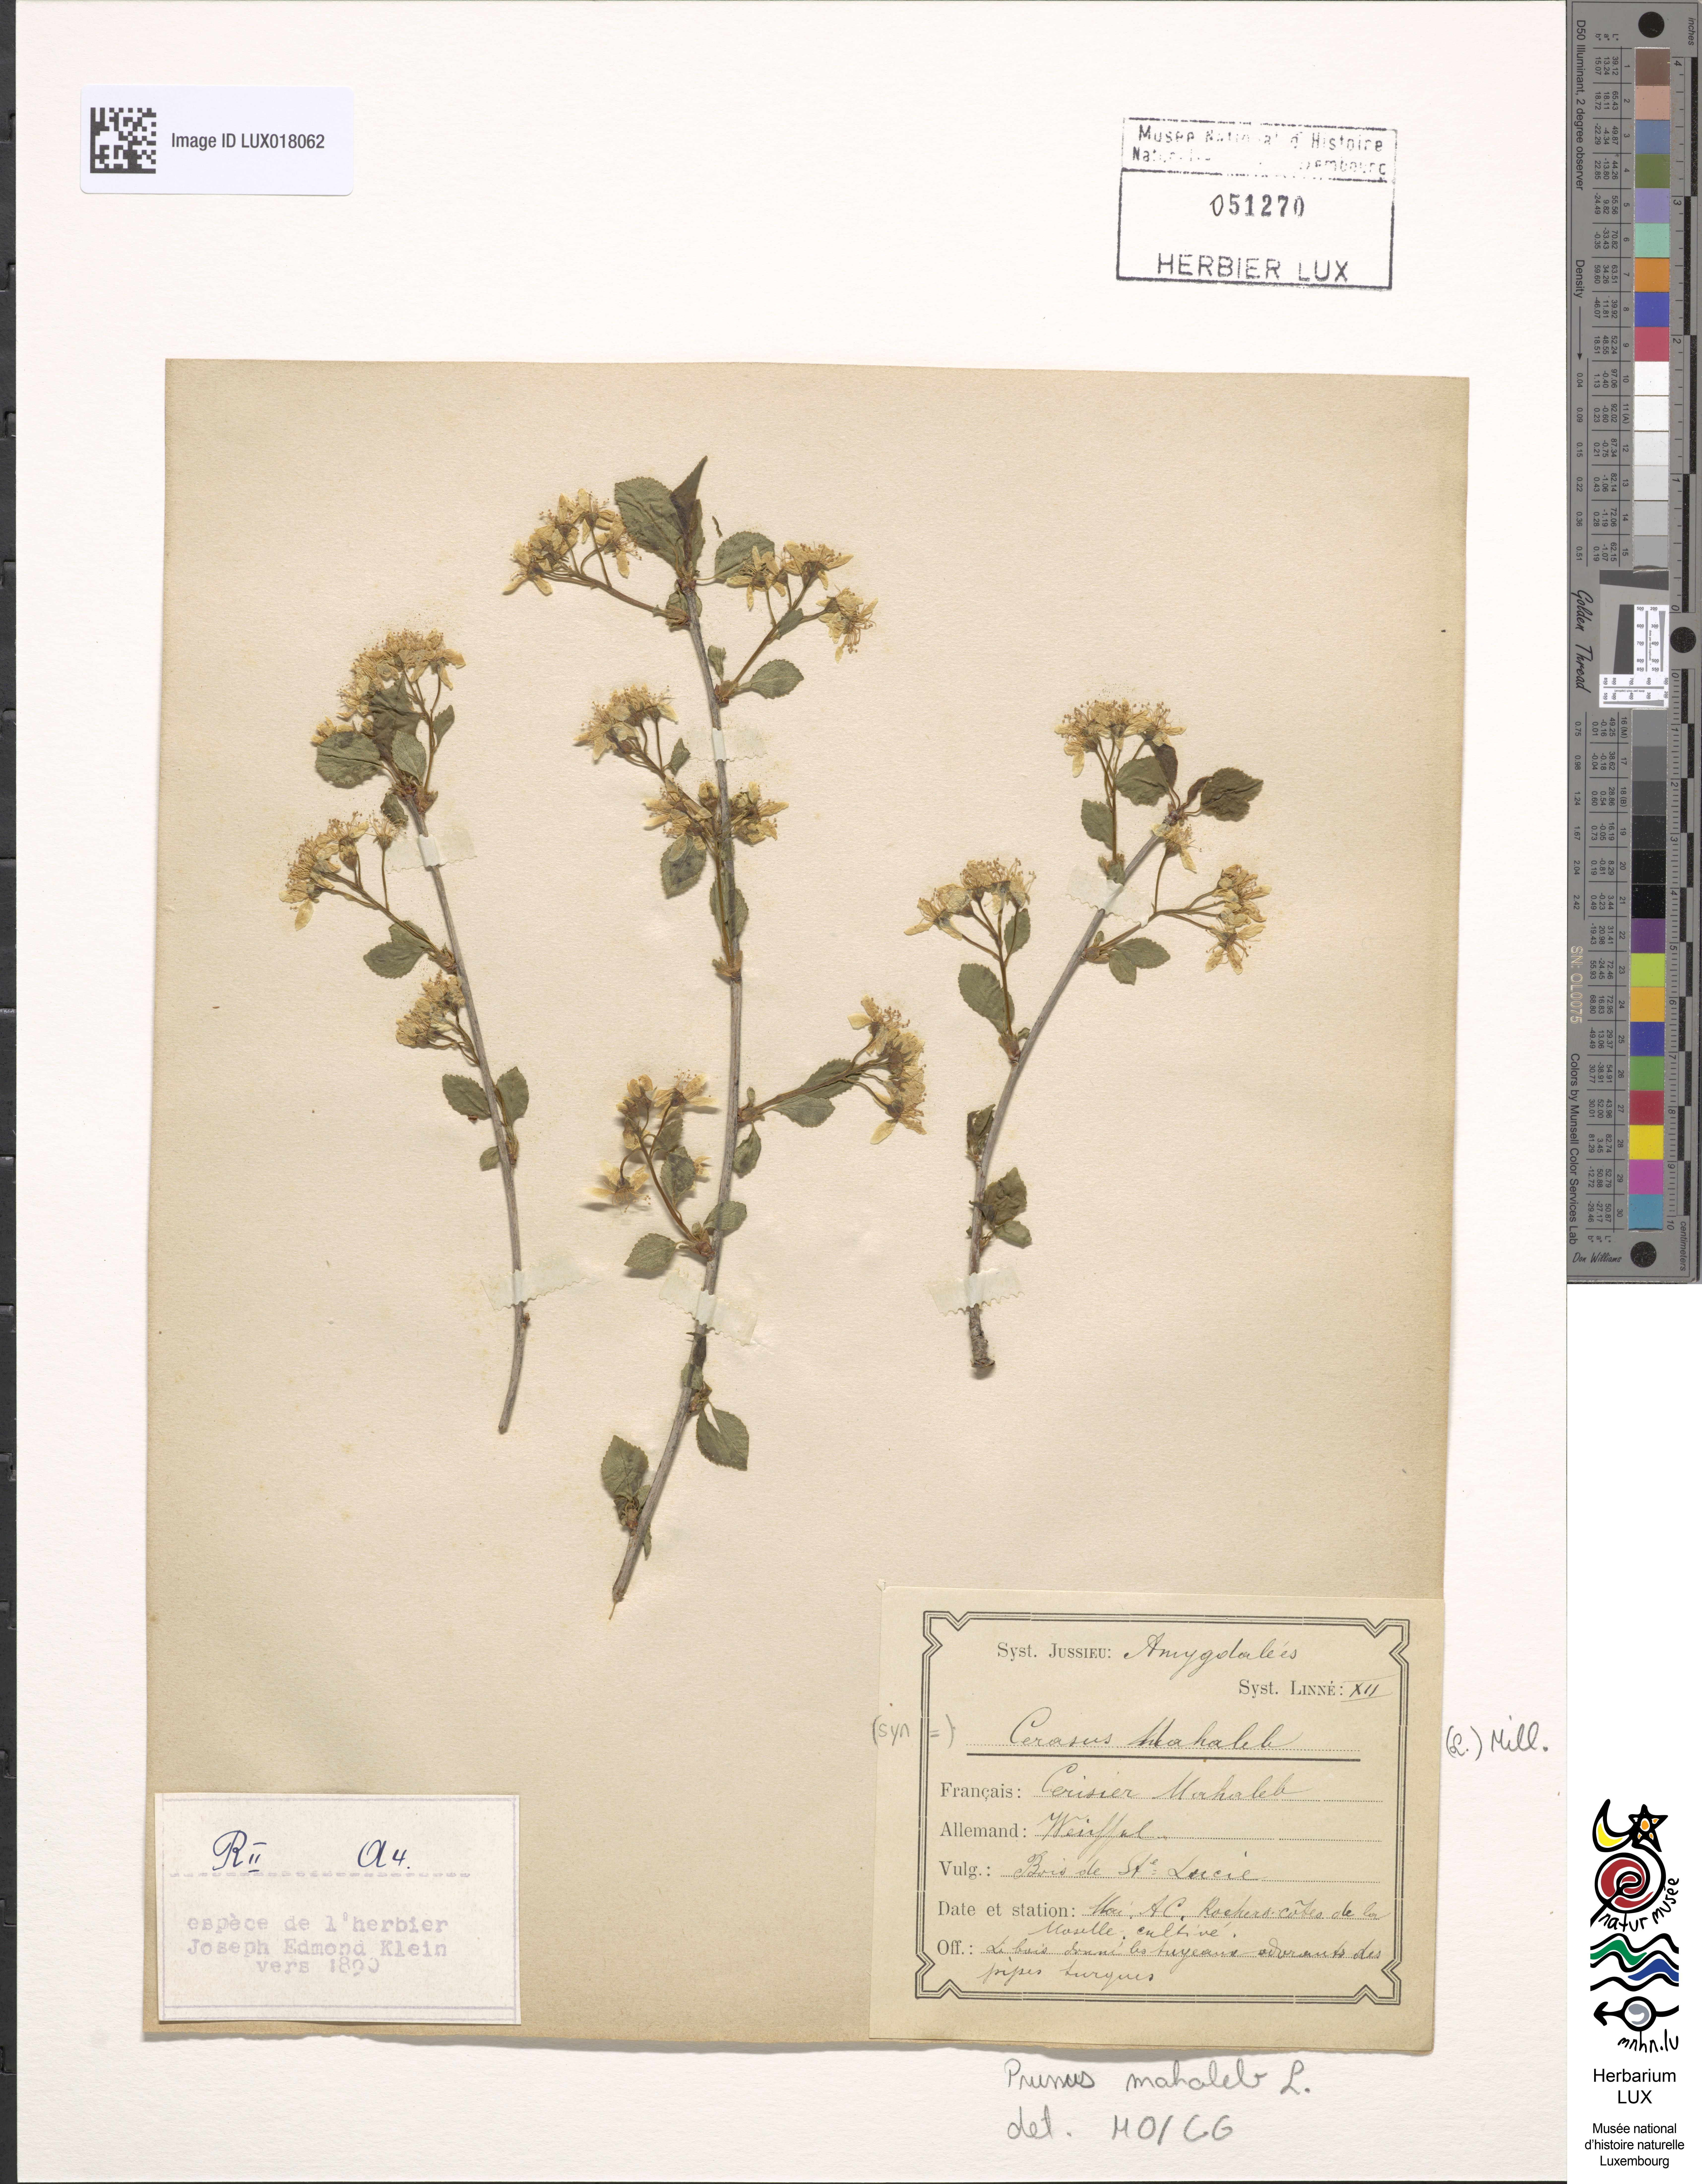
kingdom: Plantae
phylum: Tracheophyta
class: Magnoliopsida
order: Rosales
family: Rosaceae
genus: Prunus
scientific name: Prunus mahaleb
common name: Mahaleb cherry
